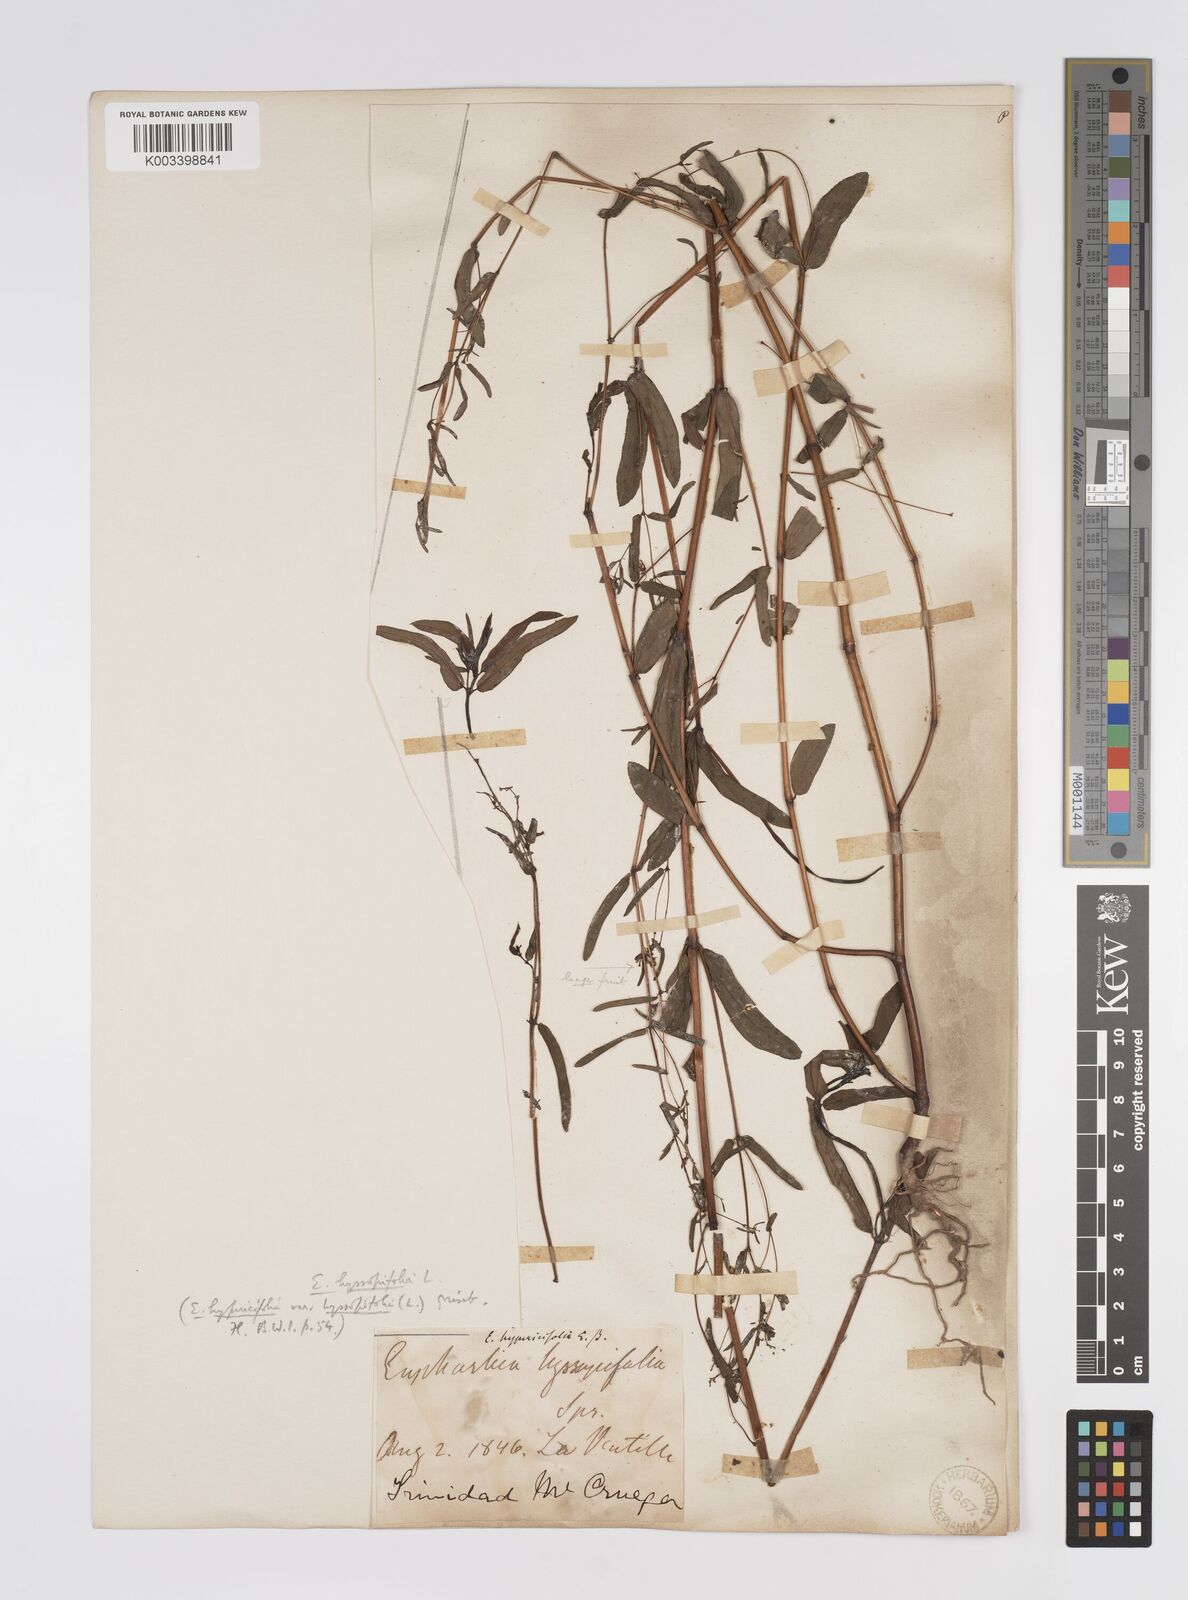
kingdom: Plantae
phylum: Tracheophyta
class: Magnoliopsida
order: Malpighiales
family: Euphorbiaceae
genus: Euphorbia
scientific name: Euphorbia hyssopifolia
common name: Hyssopleaf sandmat
